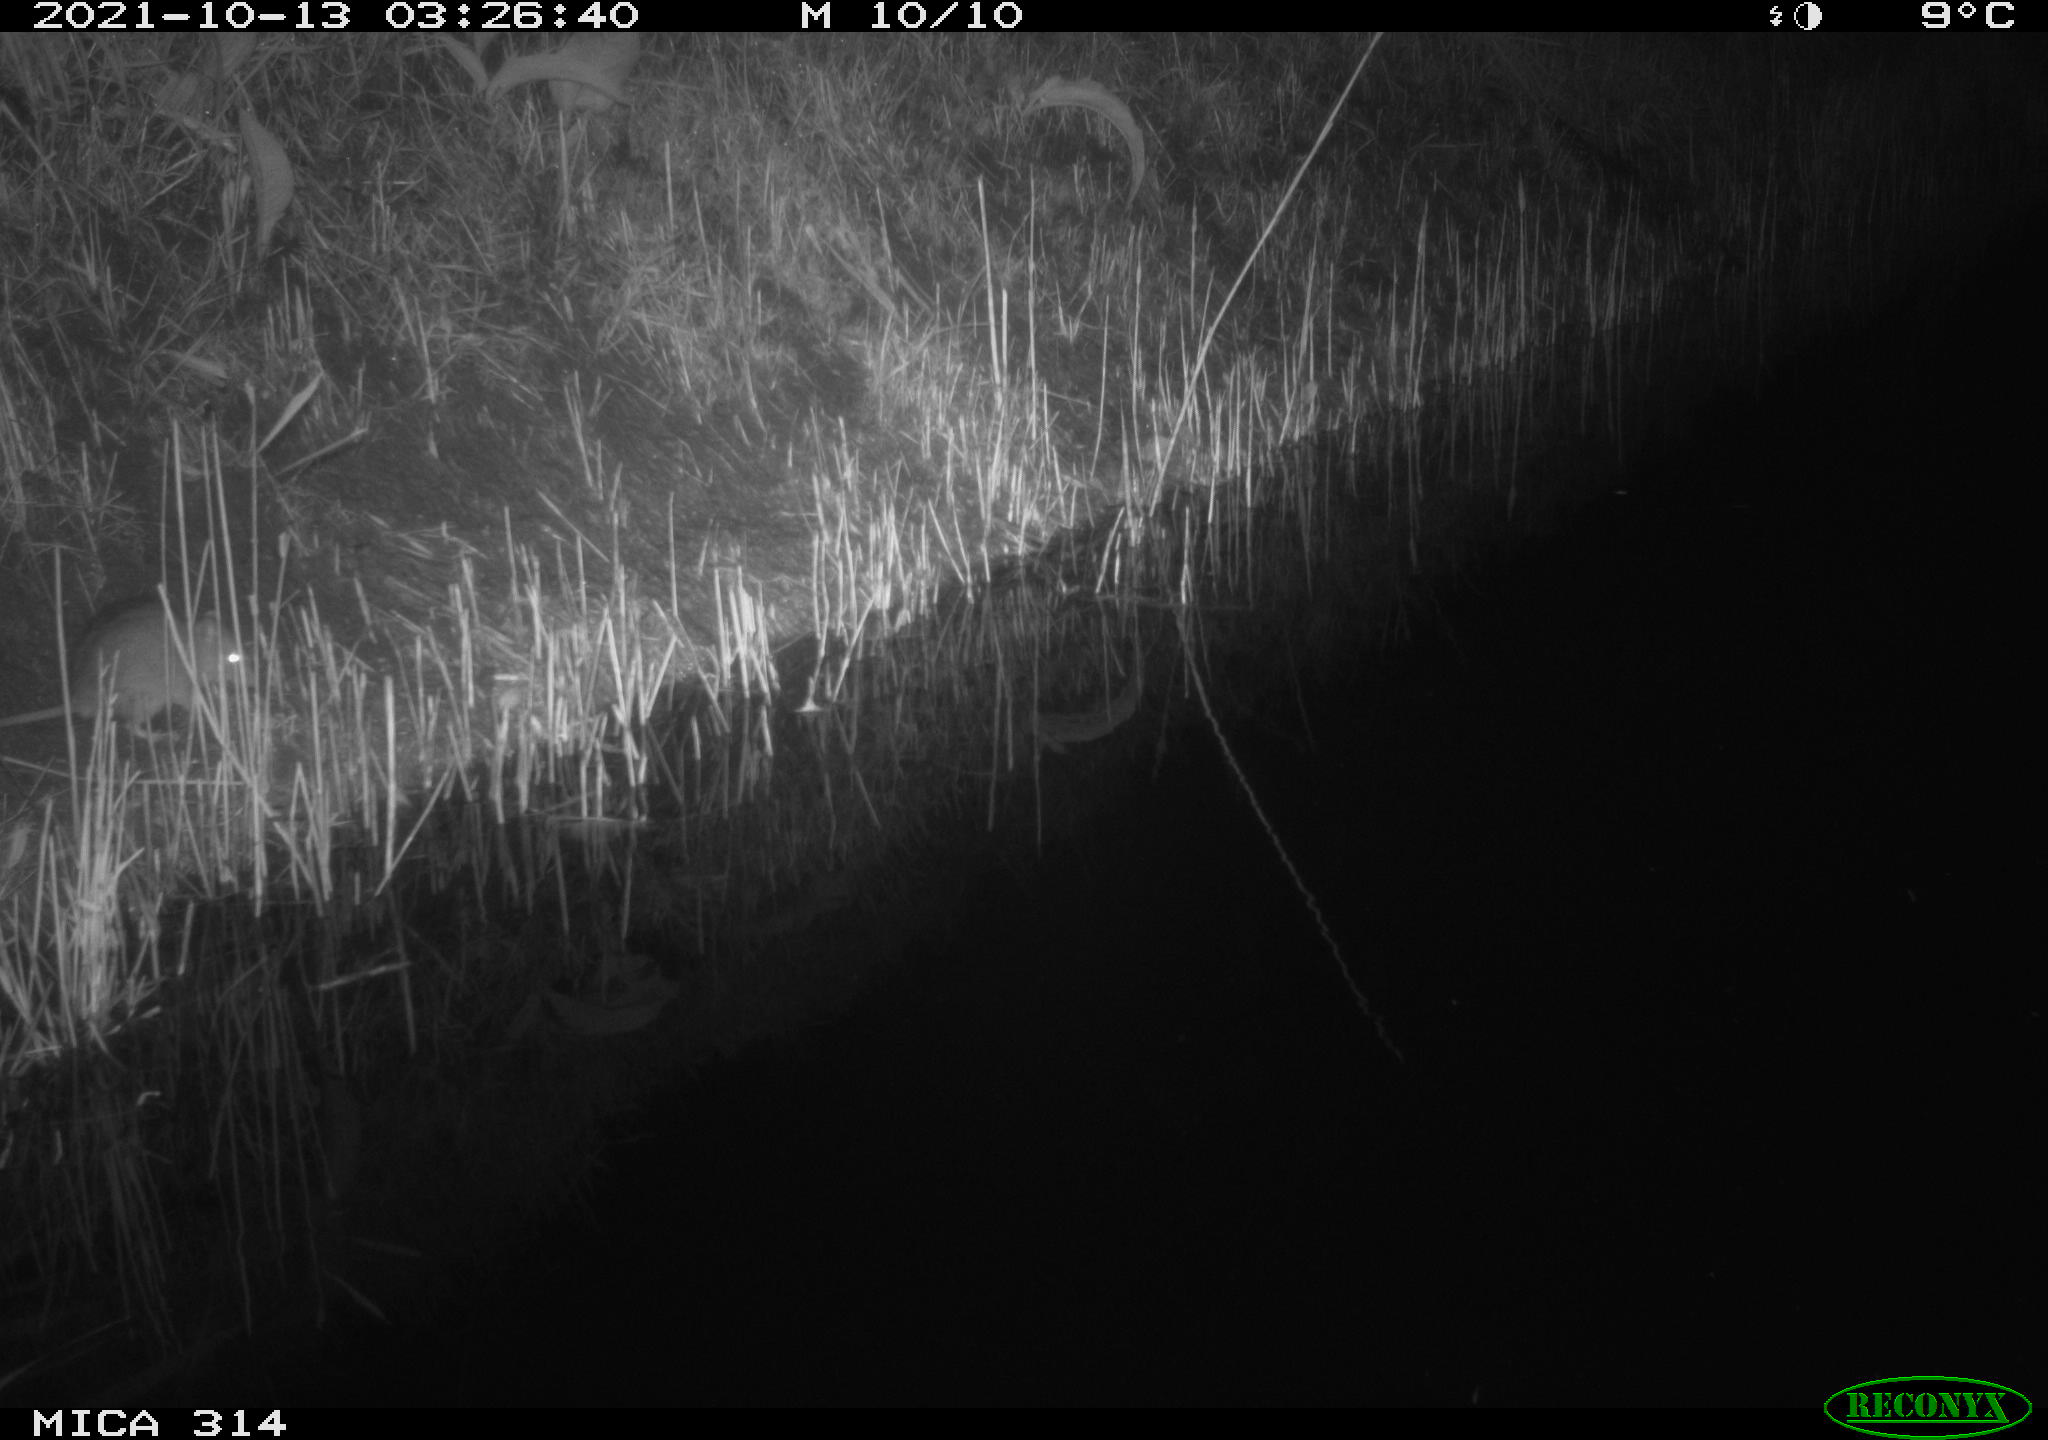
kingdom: Animalia
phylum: Chordata
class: Mammalia
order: Rodentia
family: Muridae
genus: Rattus
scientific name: Rattus norvegicus
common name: Brown rat
